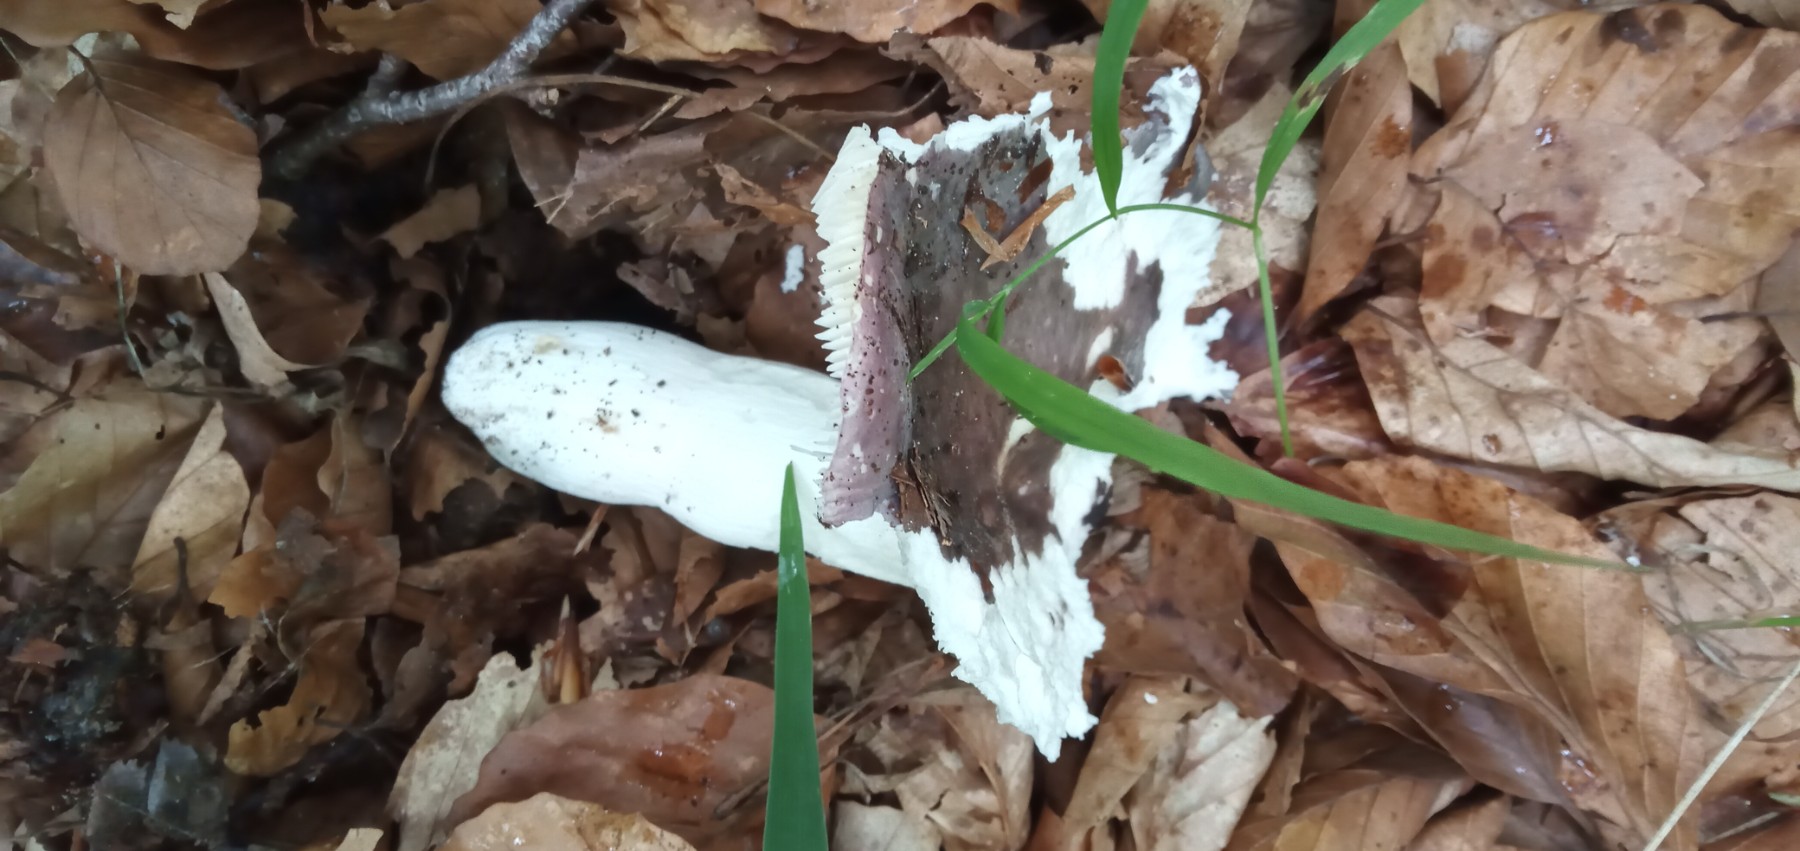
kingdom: Fungi
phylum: Basidiomycota
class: Agaricomycetes
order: Russulales
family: Russulaceae
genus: Russula
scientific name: Russula cyanoxantha
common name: broget skørhat
